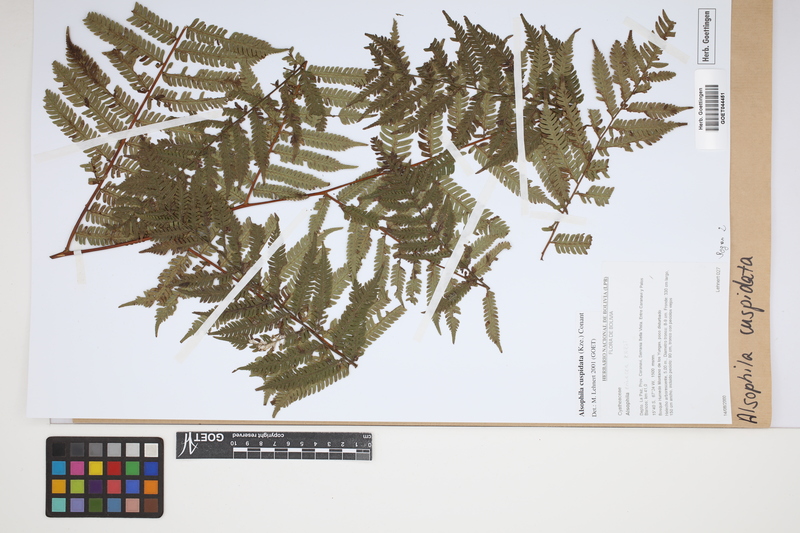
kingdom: Plantae
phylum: Tracheophyta
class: Polypodiopsida
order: Cyatheales
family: Cyatheaceae
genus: Alsophila
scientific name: Alsophila cuspidata
